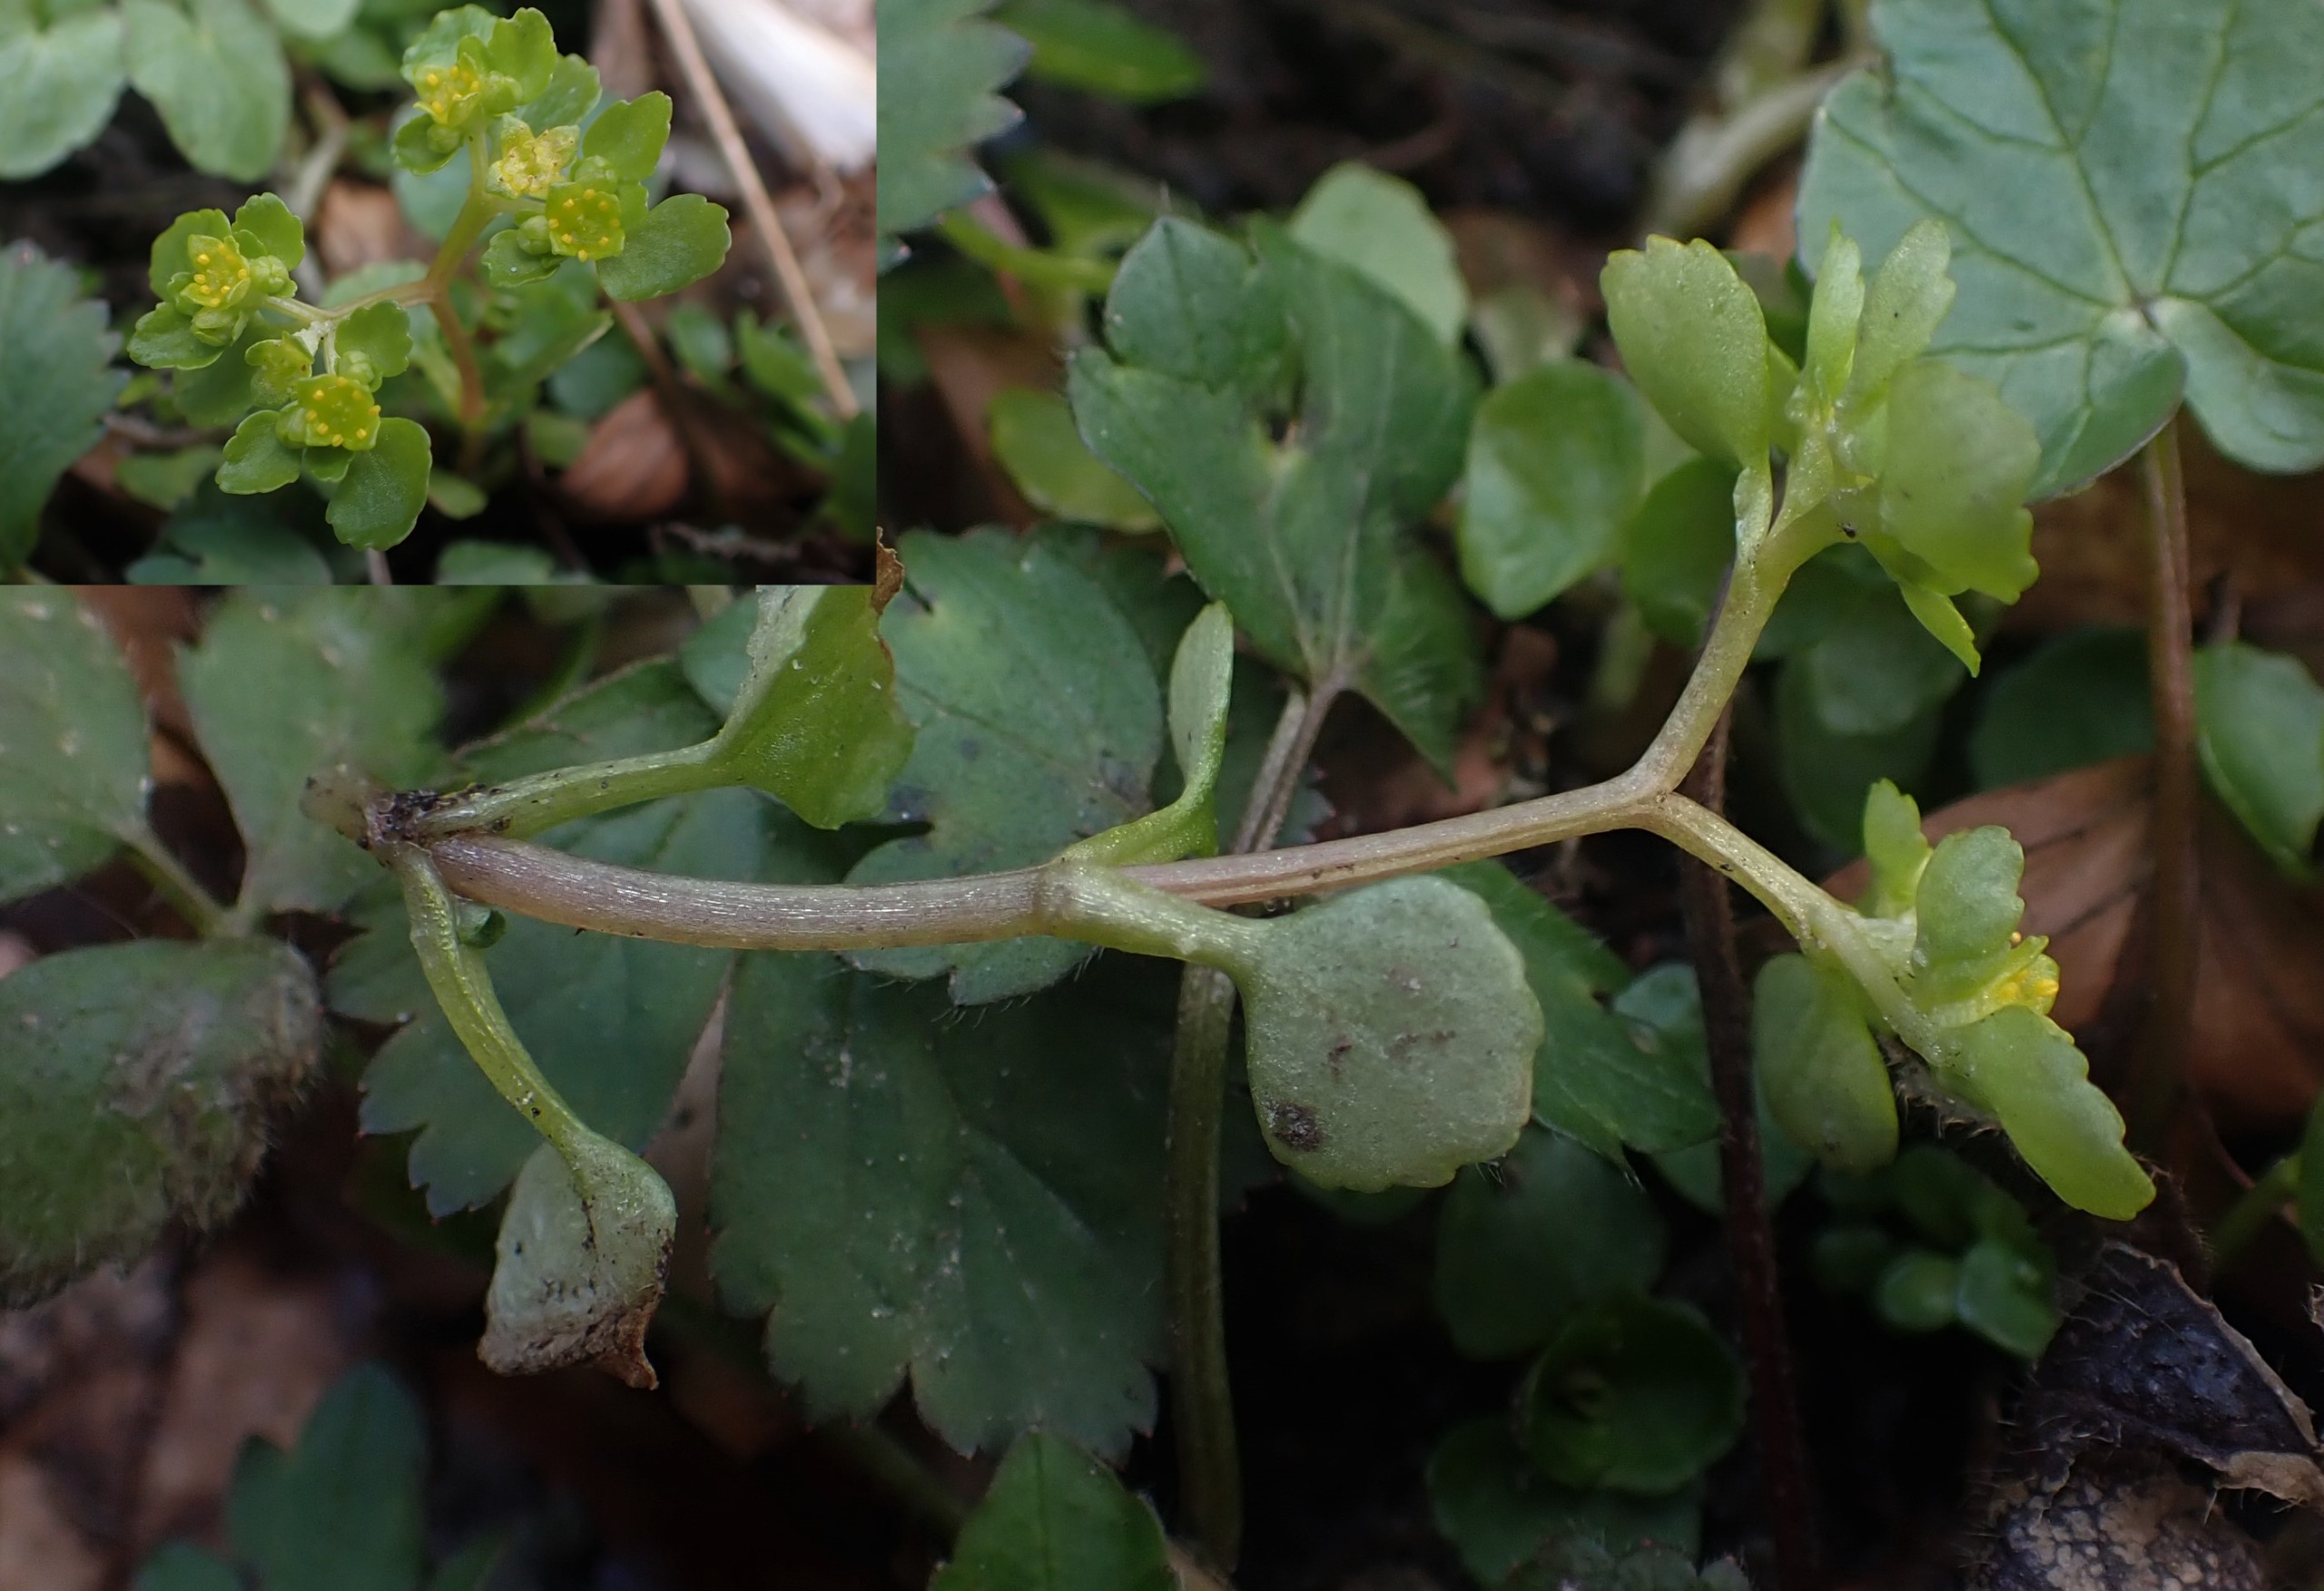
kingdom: Plantae
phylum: Tracheophyta
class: Magnoliopsida
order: Saxifragales
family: Saxifragaceae
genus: Chrysosplenium
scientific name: Chrysosplenium oppositifolium
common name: Småbladet milturt
